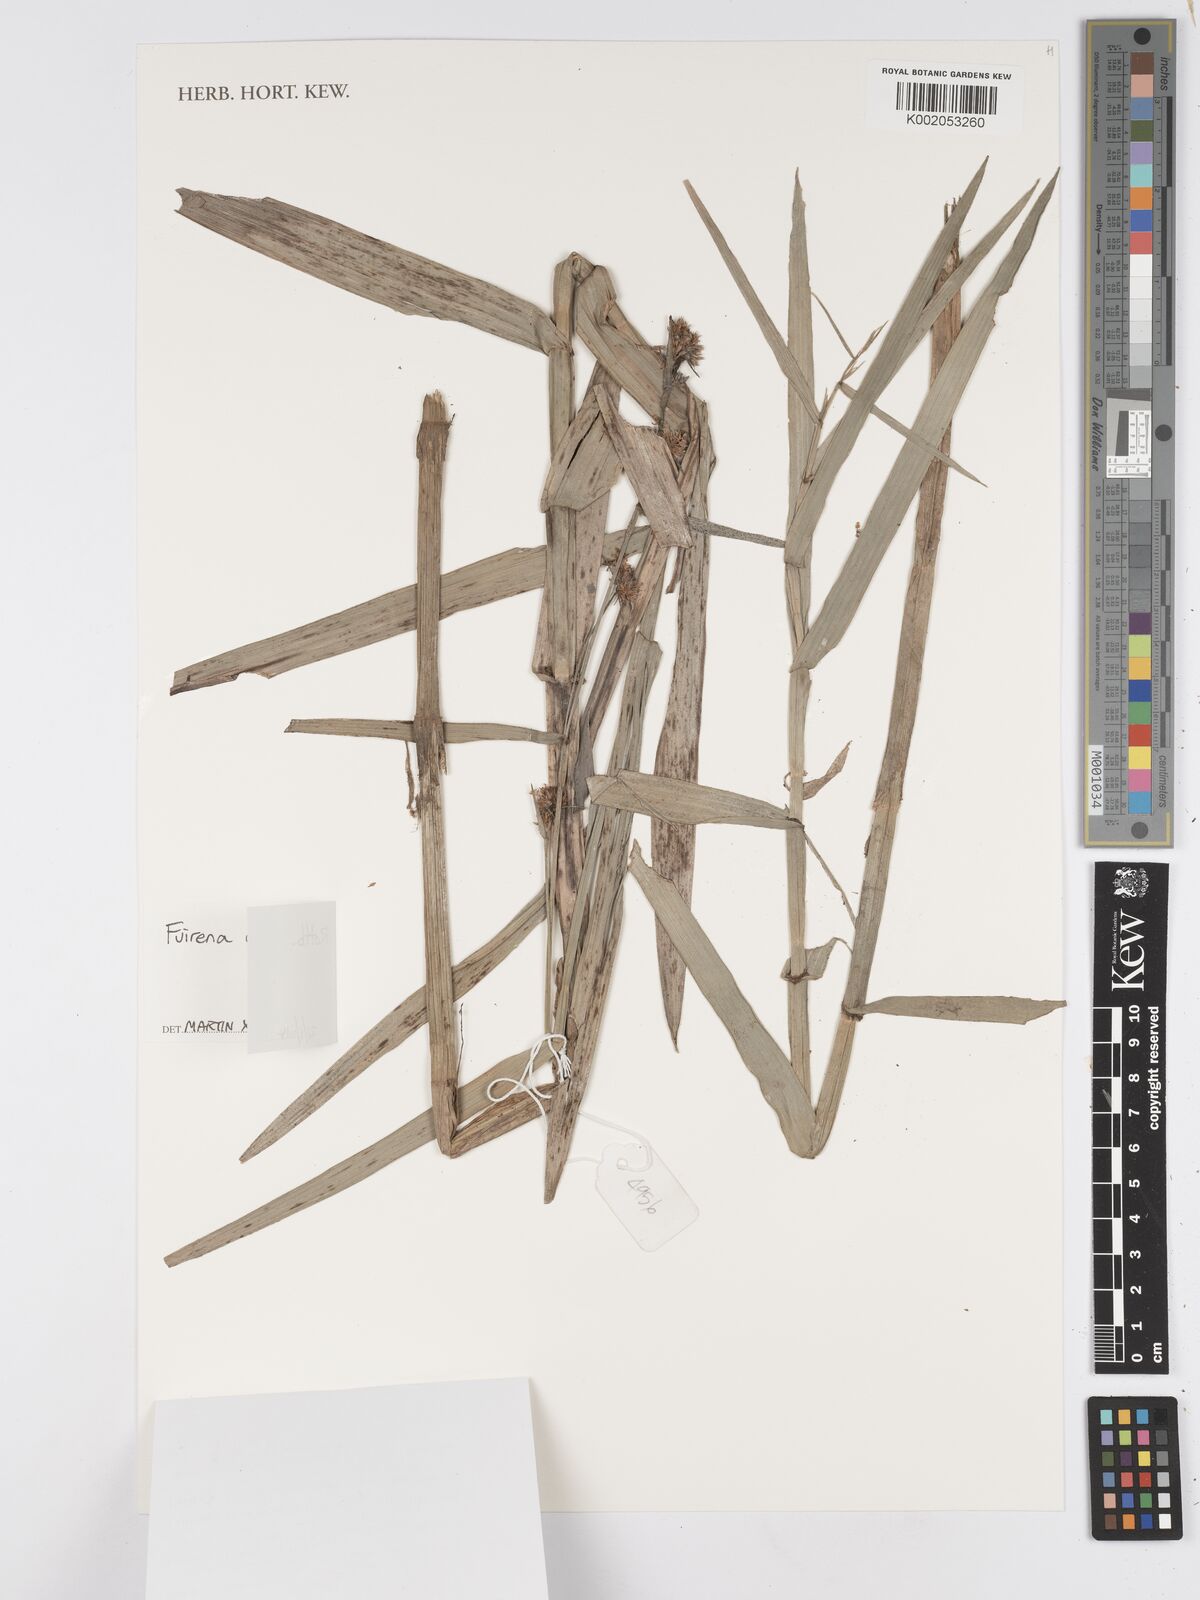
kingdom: Plantae
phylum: Tracheophyta
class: Liliopsida
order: Poales
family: Cyperaceae
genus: Fuirena
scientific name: Fuirena umbellata
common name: Yefen
